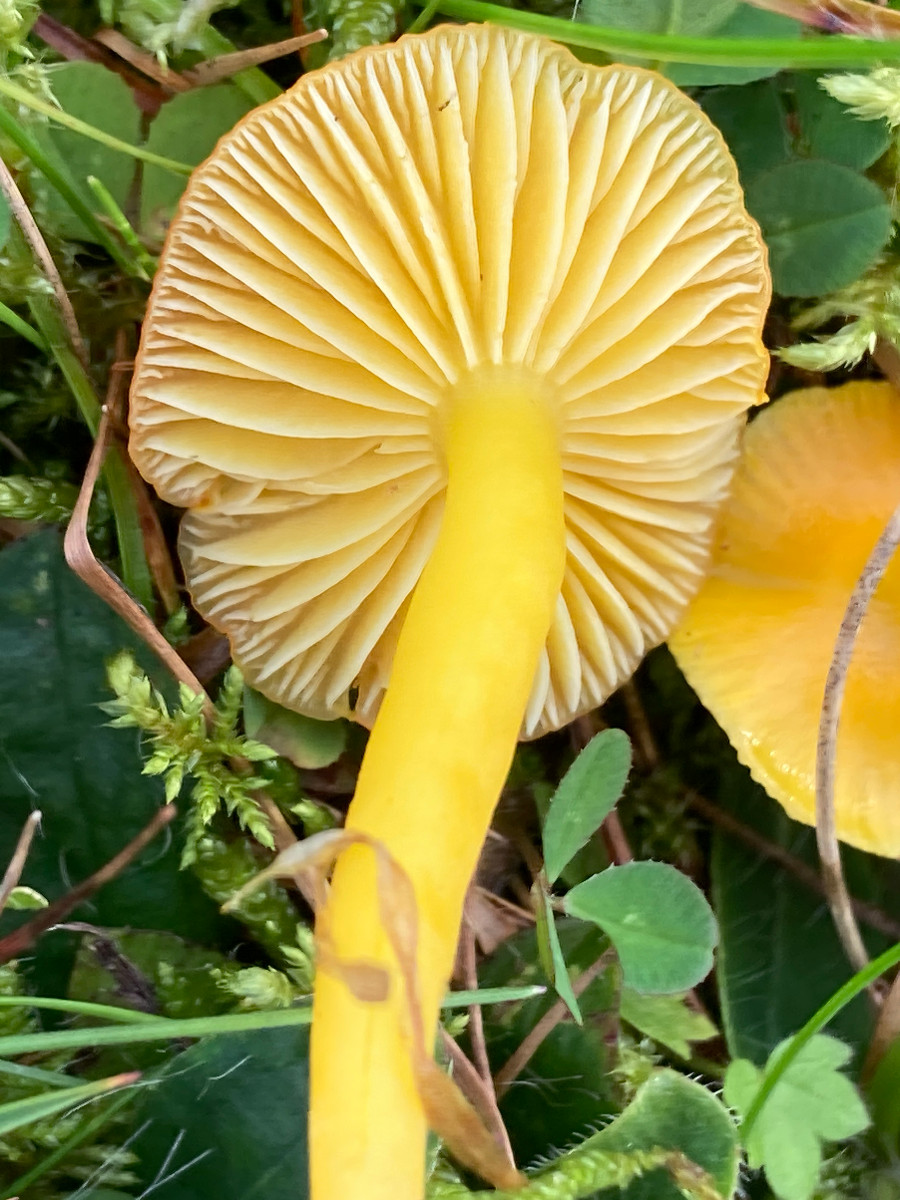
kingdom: Fungi
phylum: Basidiomycota
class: Agaricomycetes
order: Agaricales
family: Hygrophoraceae
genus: Hygrocybe
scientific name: Hygrocybe ceracea
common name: voksgul vokshat
